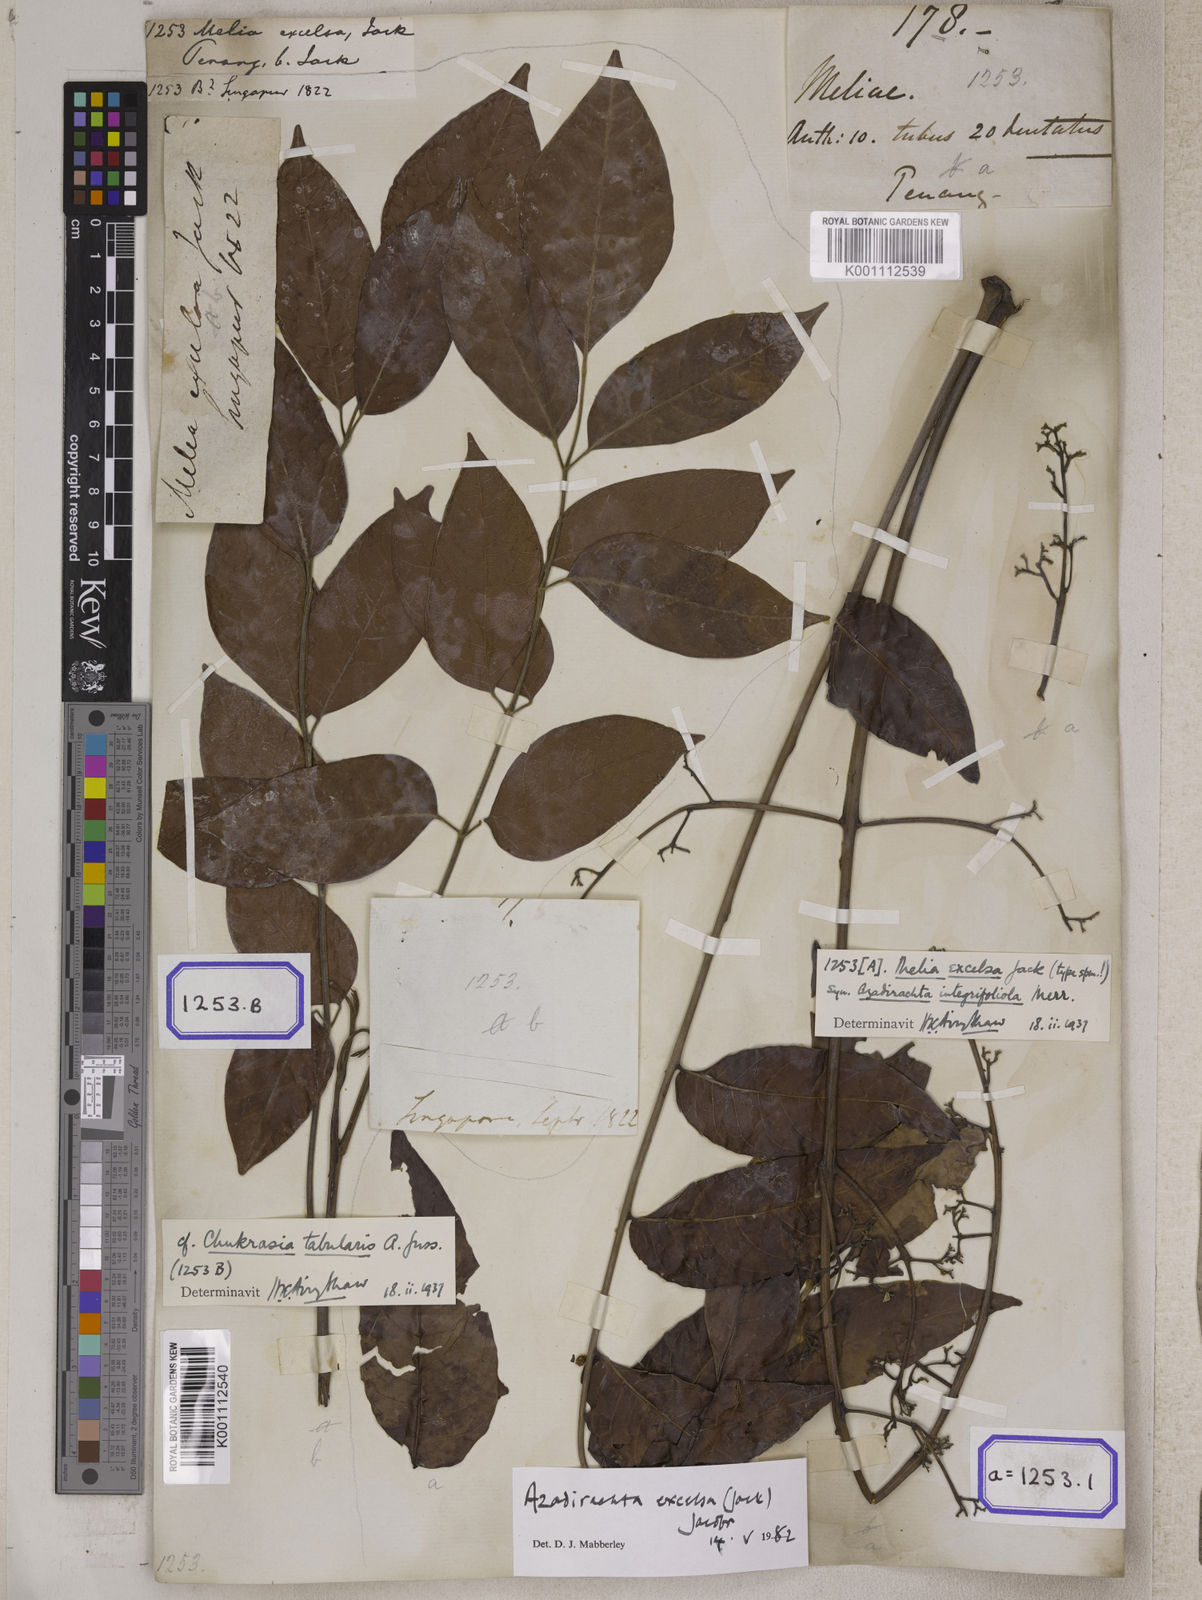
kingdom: Plantae
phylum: Tracheophyta
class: Magnoliopsida
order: Sapindales
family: Meliaceae
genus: Azadirachta
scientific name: Azadirachta excelsa
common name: Neem tree
